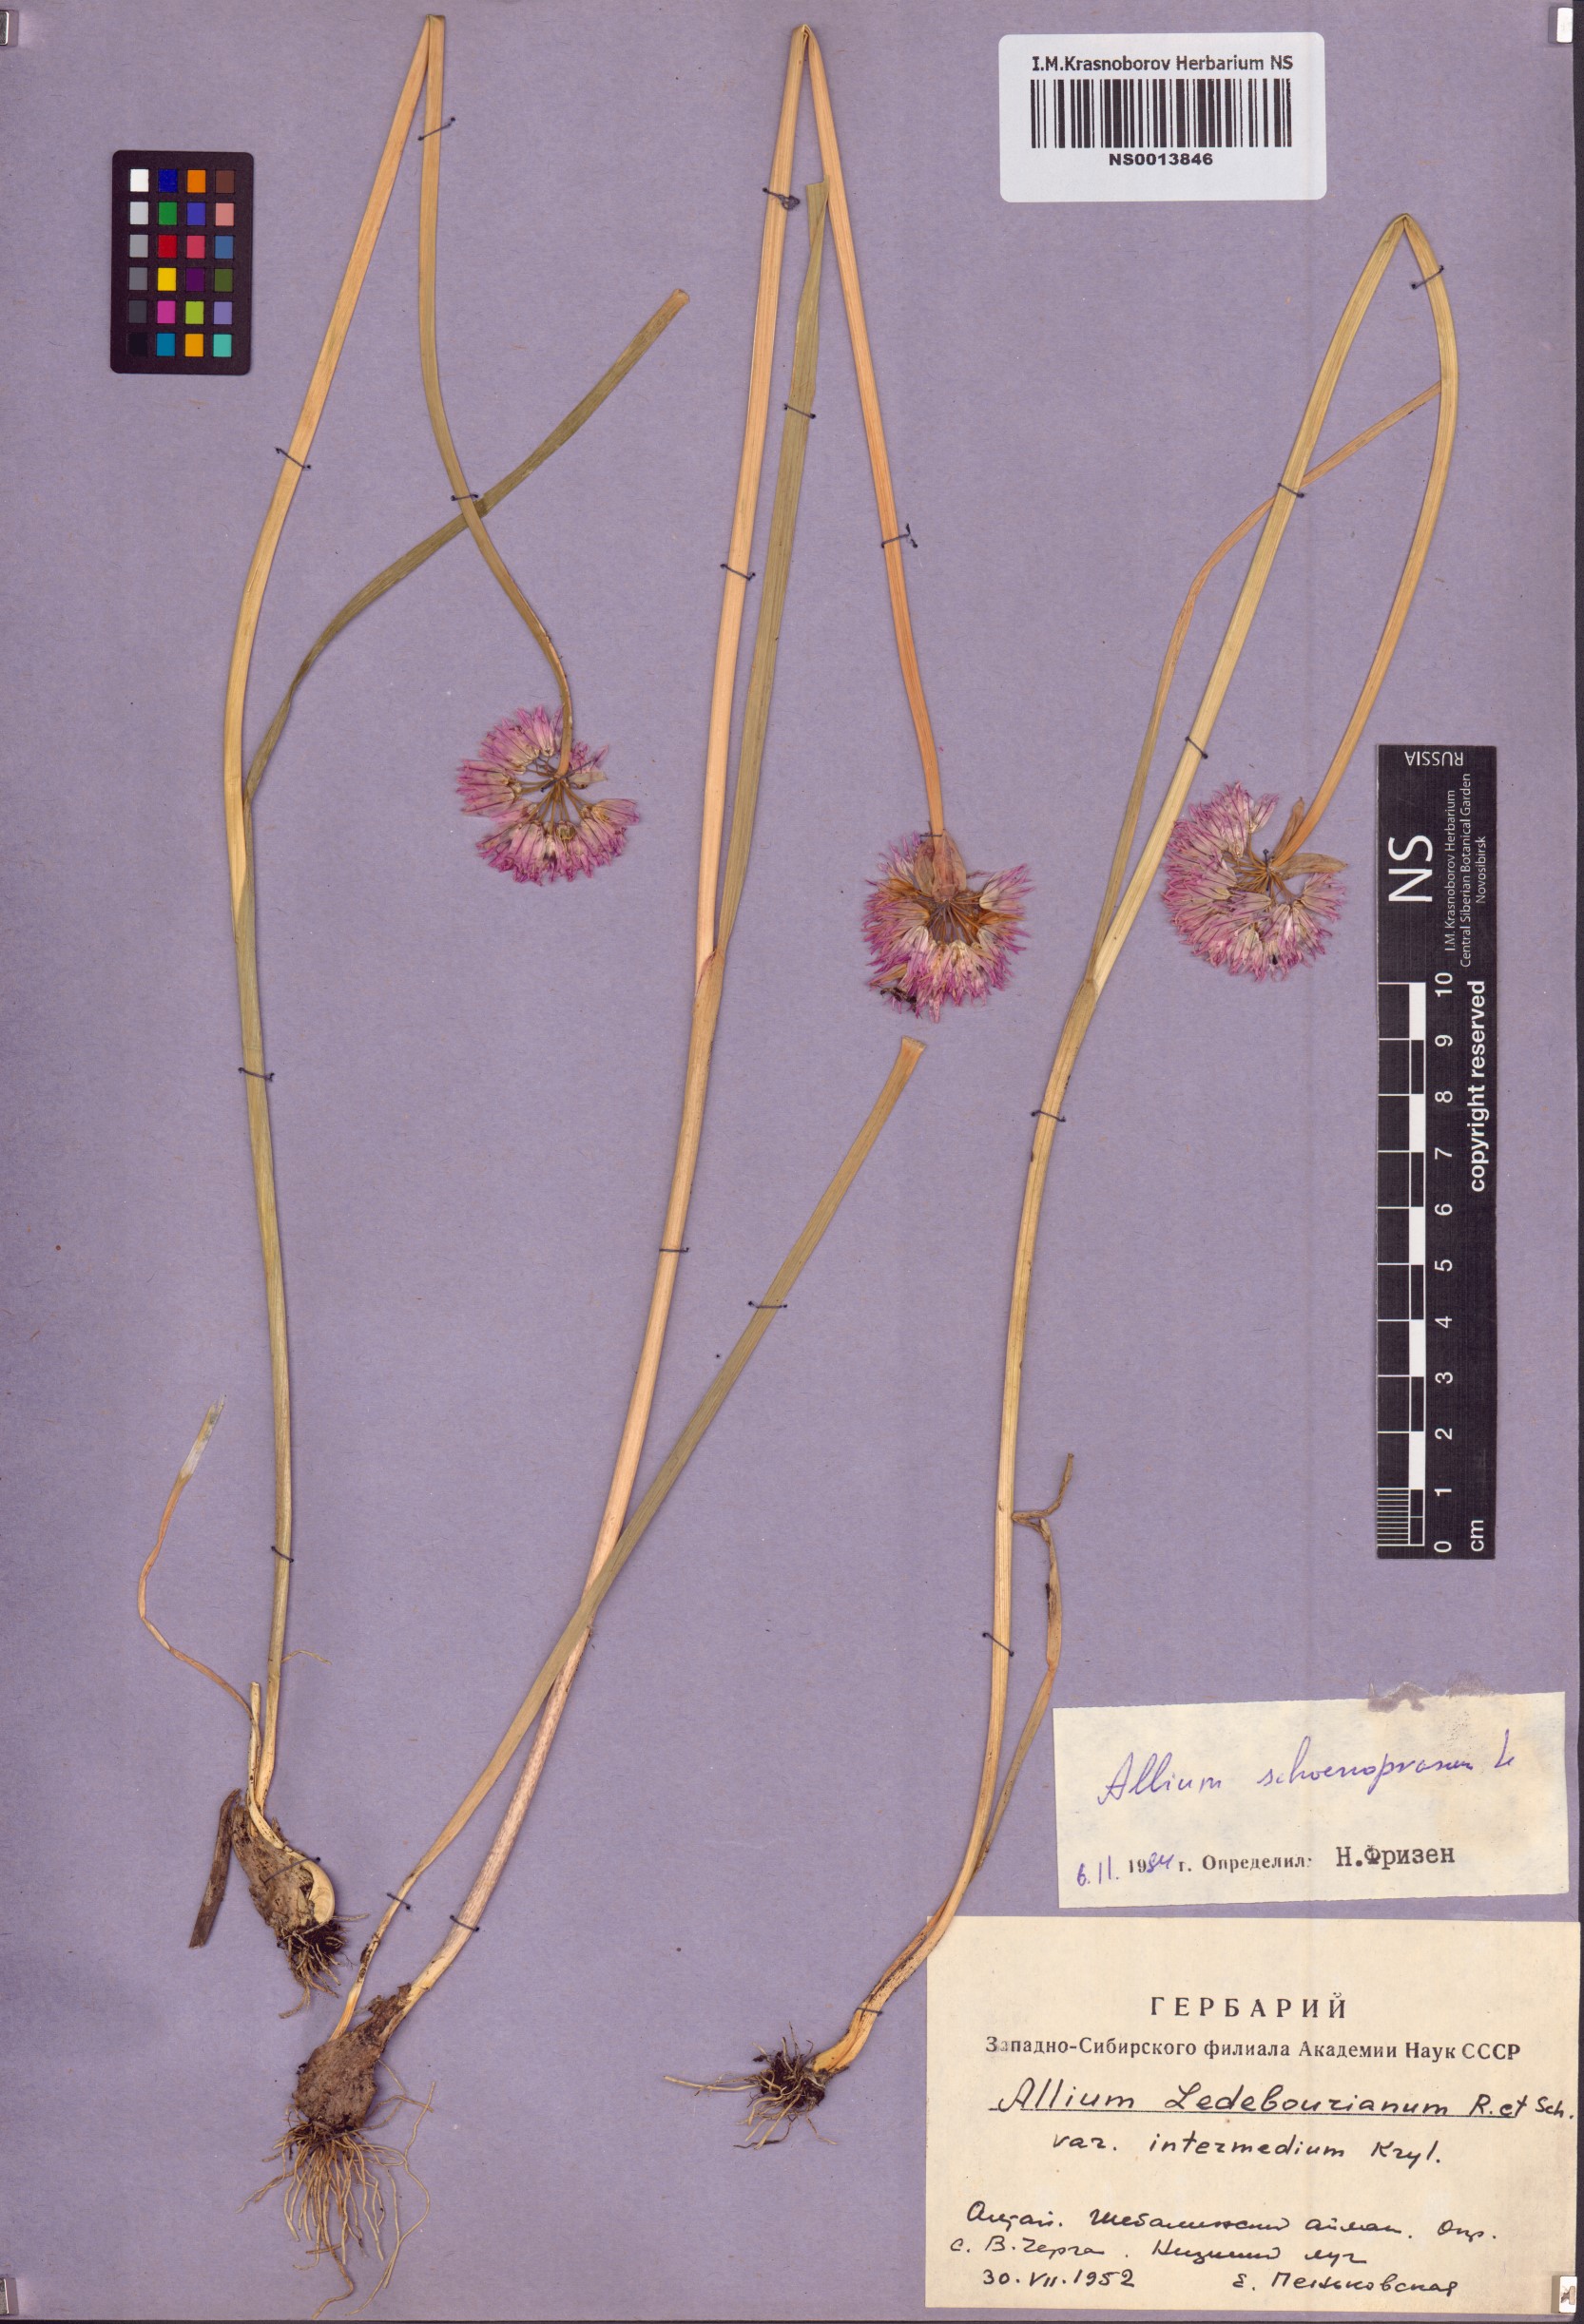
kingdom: Plantae
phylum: Tracheophyta
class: Liliopsida
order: Asparagales
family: Amaryllidaceae
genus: Allium
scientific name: Allium schoenoprasum
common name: Chives
